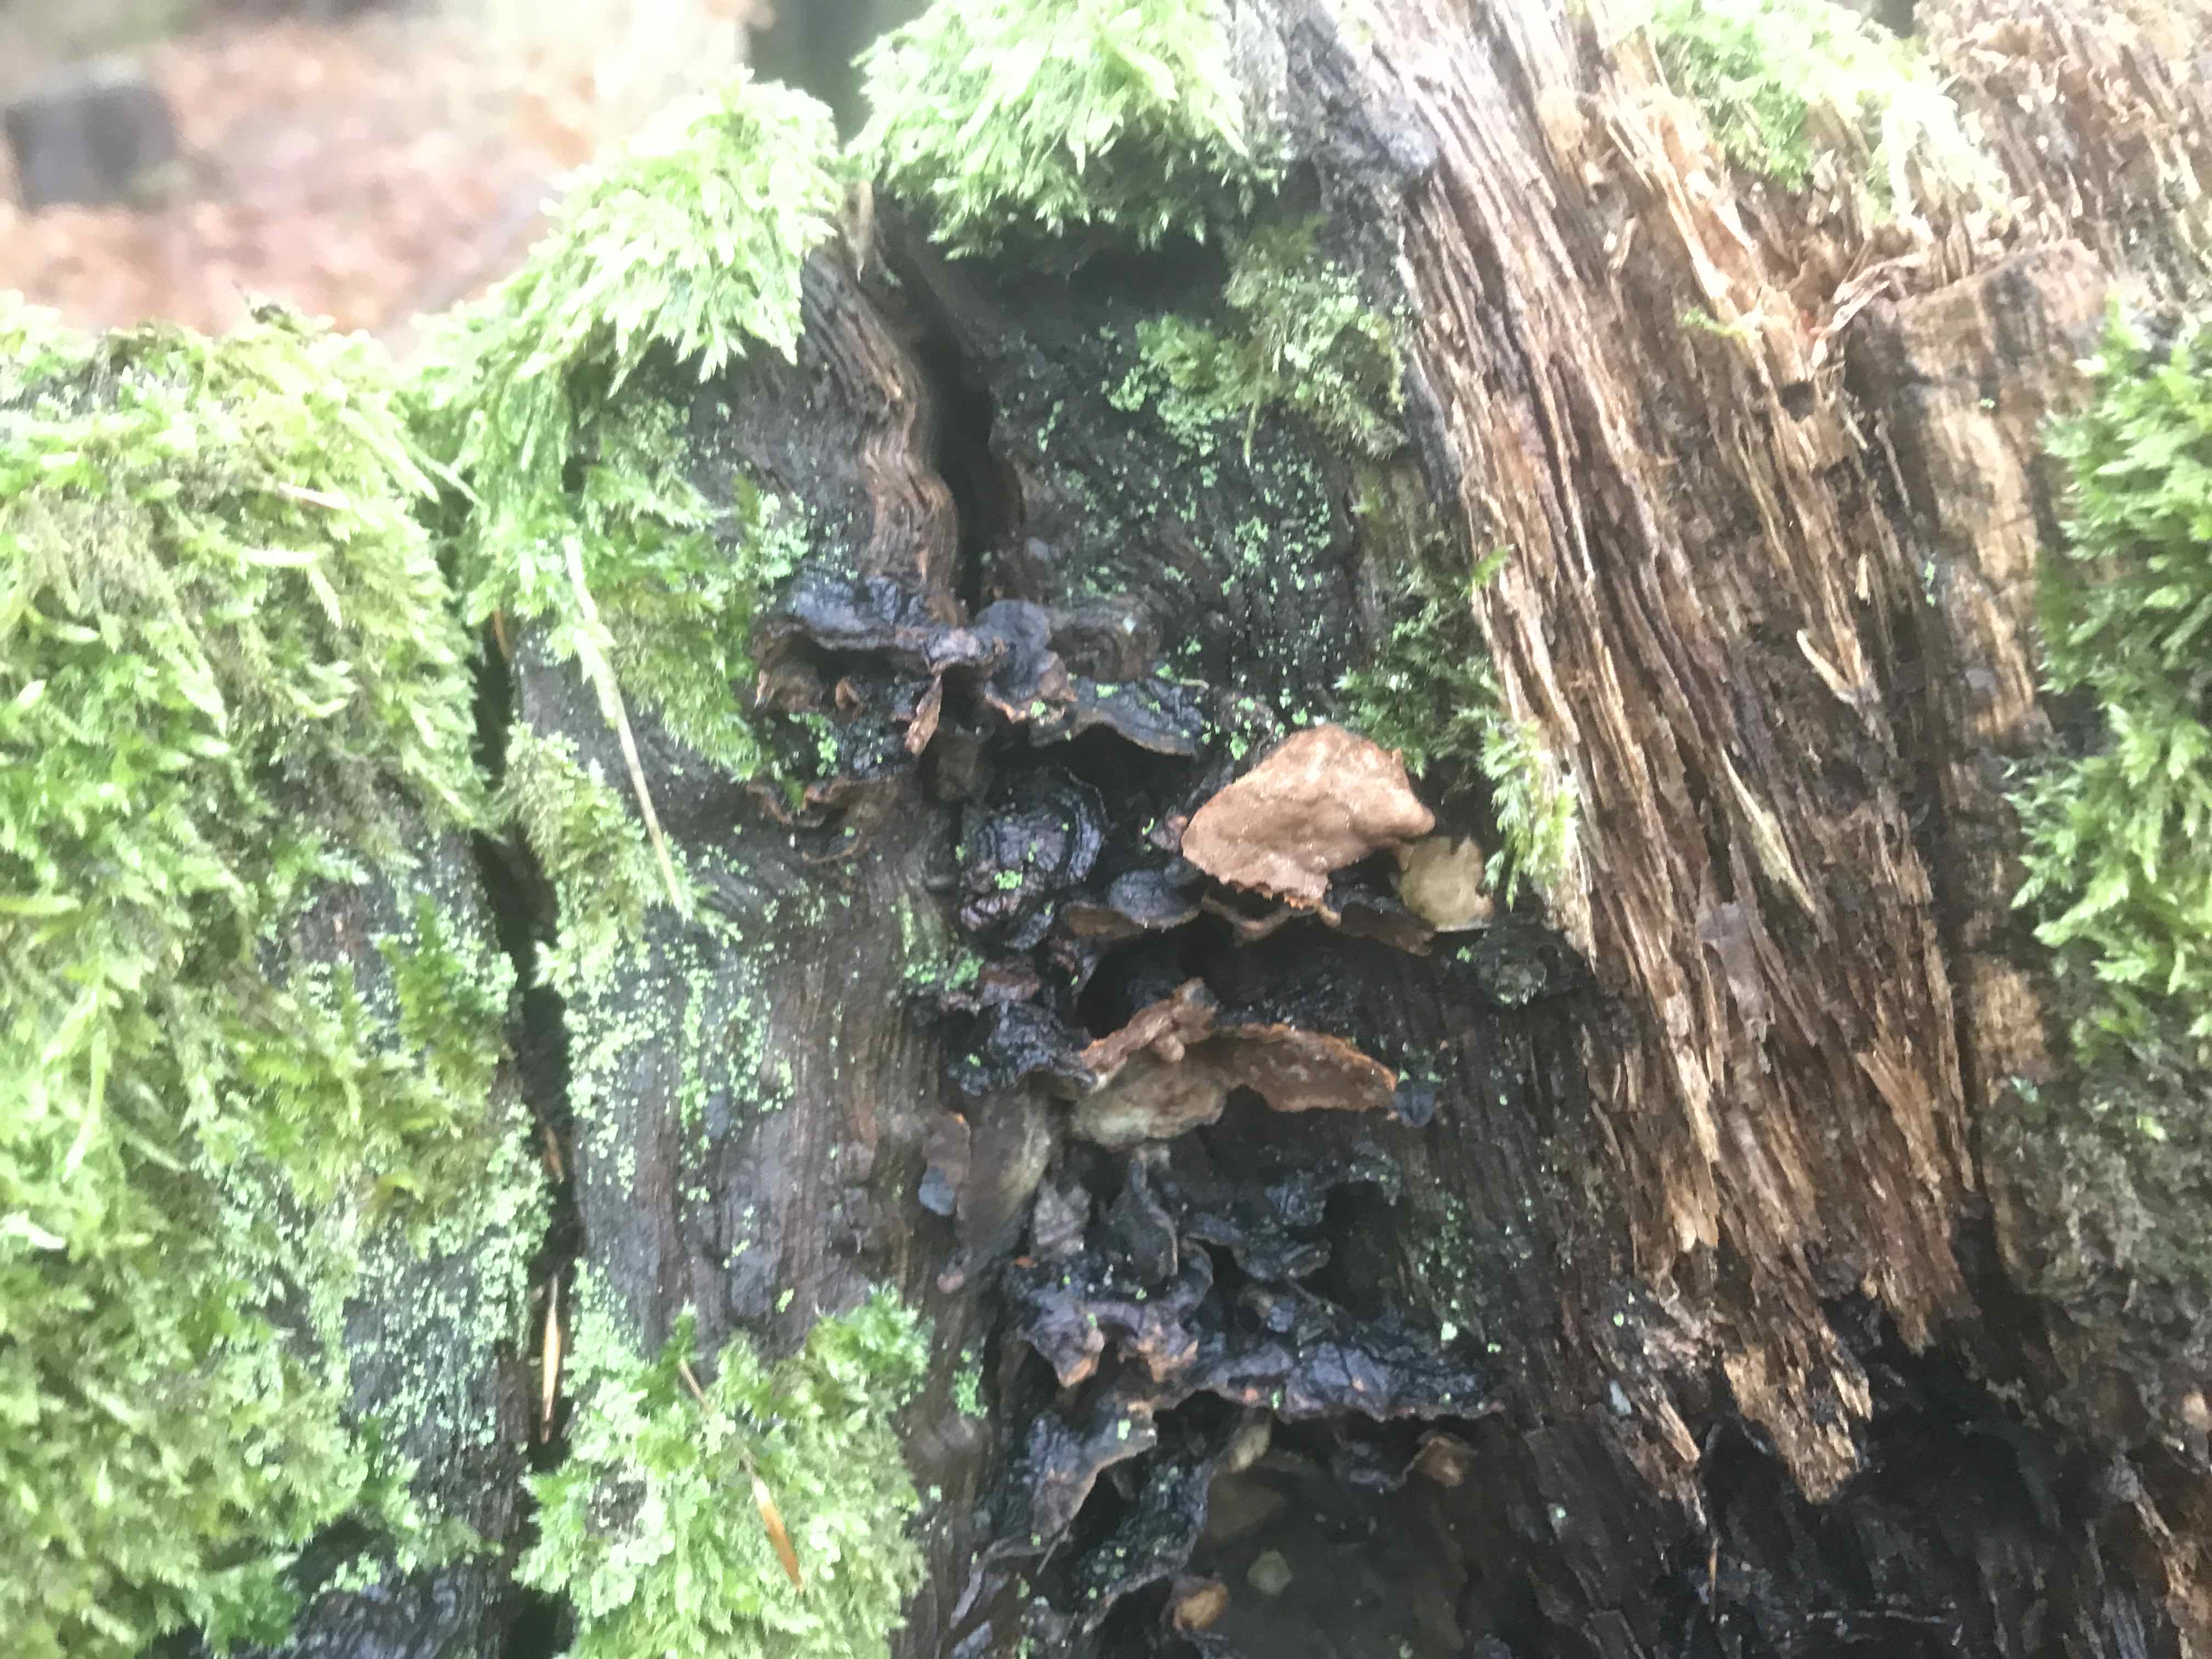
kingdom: Fungi
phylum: Basidiomycota
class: Agaricomycetes
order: Hymenochaetales
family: Hymenochaetaceae
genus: Hymenochaete
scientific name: Hymenochaete rubiginosa
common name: stiv ruslædersvamp
